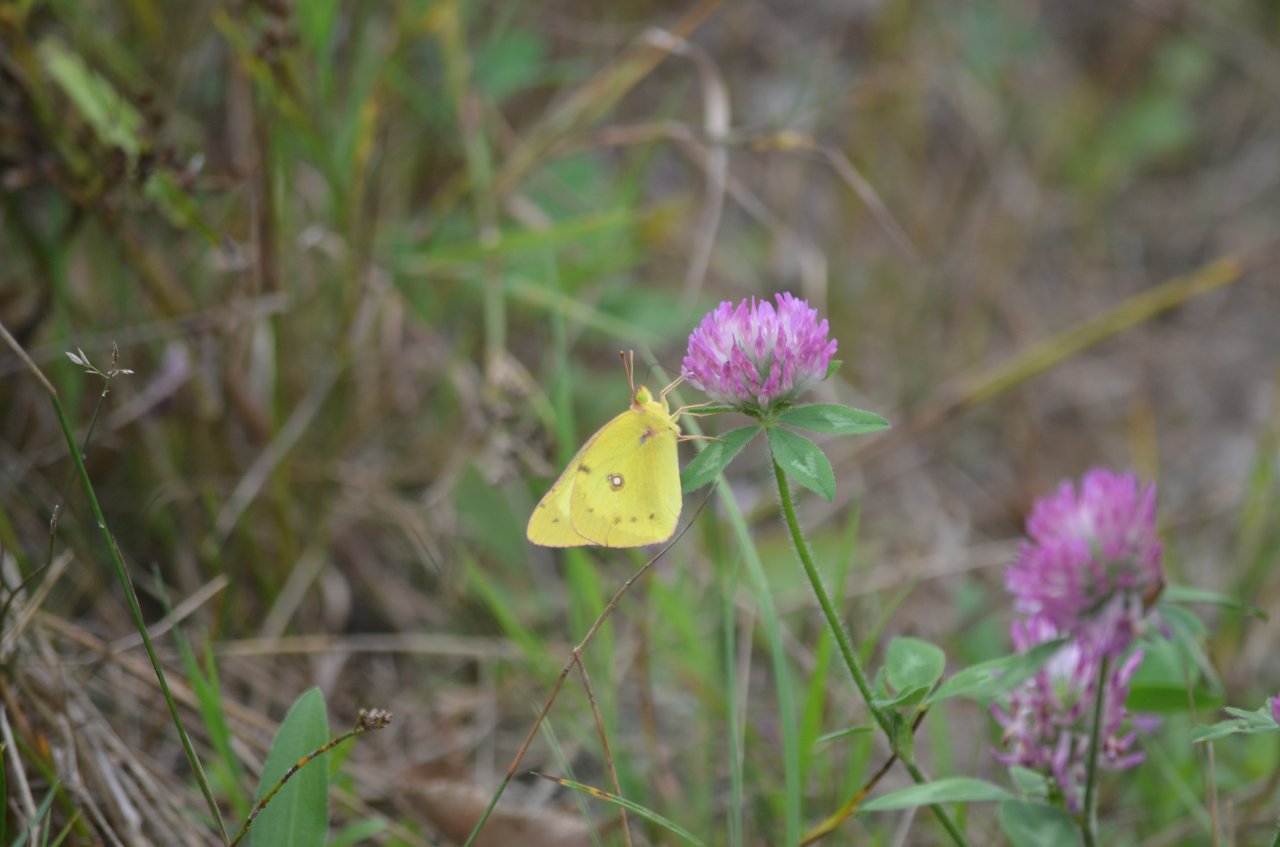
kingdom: Animalia
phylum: Arthropoda
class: Insecta
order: Lepidoptera
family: Pieridae
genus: Colias
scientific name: Colias philodice
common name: Clouded Sulphur
